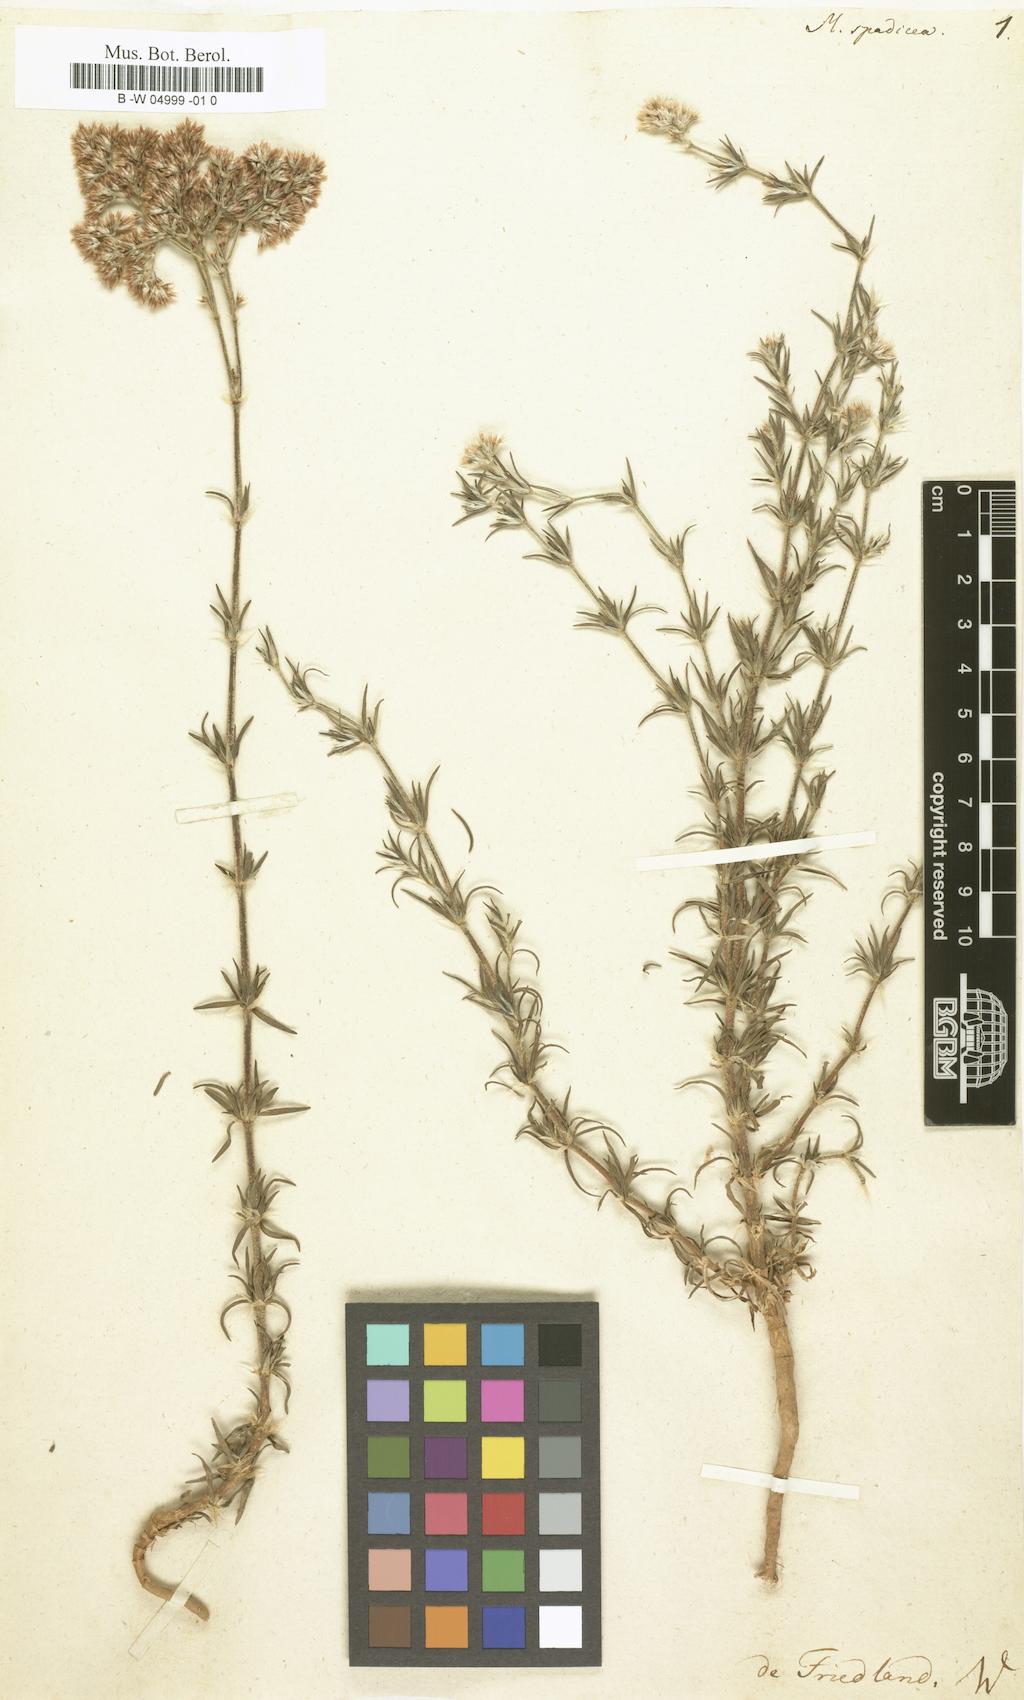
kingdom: Plantae
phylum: Tracheophyta
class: Magnoliopsida
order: Caryophyllales
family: Caryophyllaceae
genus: Polycarpaea
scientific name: Polycarpaea corymbosa
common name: Oldman's cap
